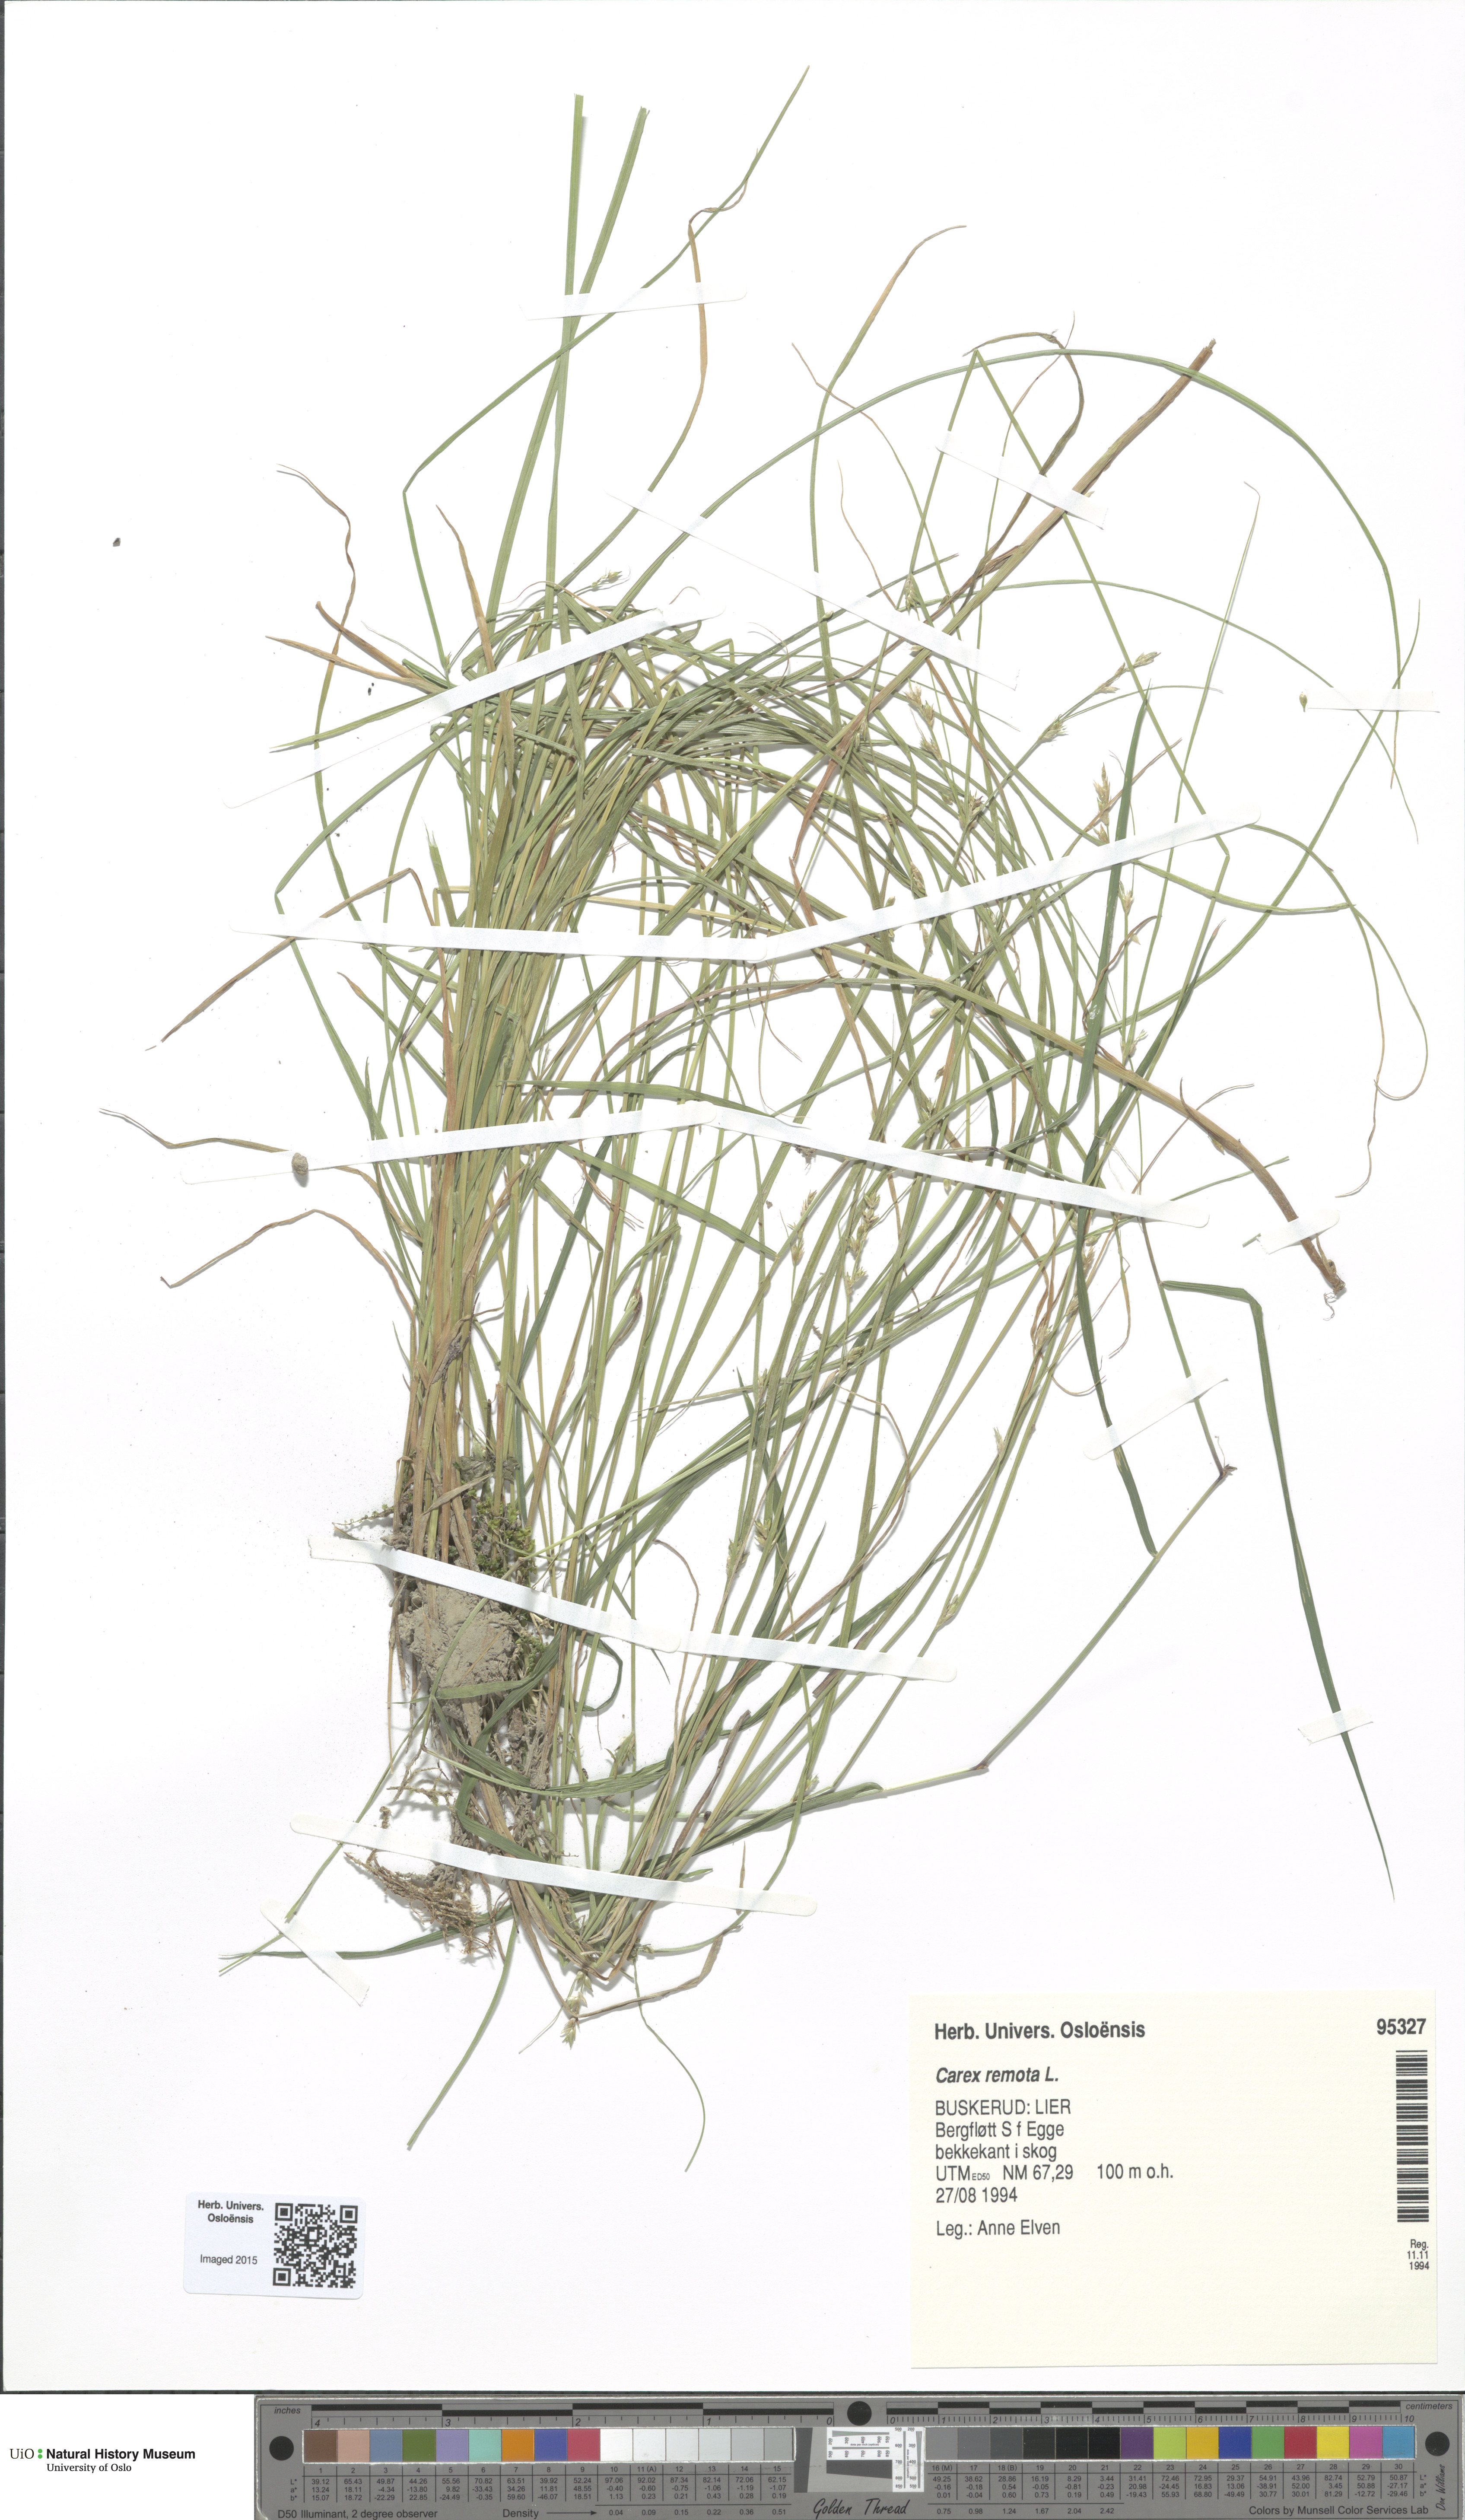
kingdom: Plantae
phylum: Tracheophyta
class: Liliopsida
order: Poales
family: Cyperaceae
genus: Carex
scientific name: Carex remota
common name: Remote sedge
